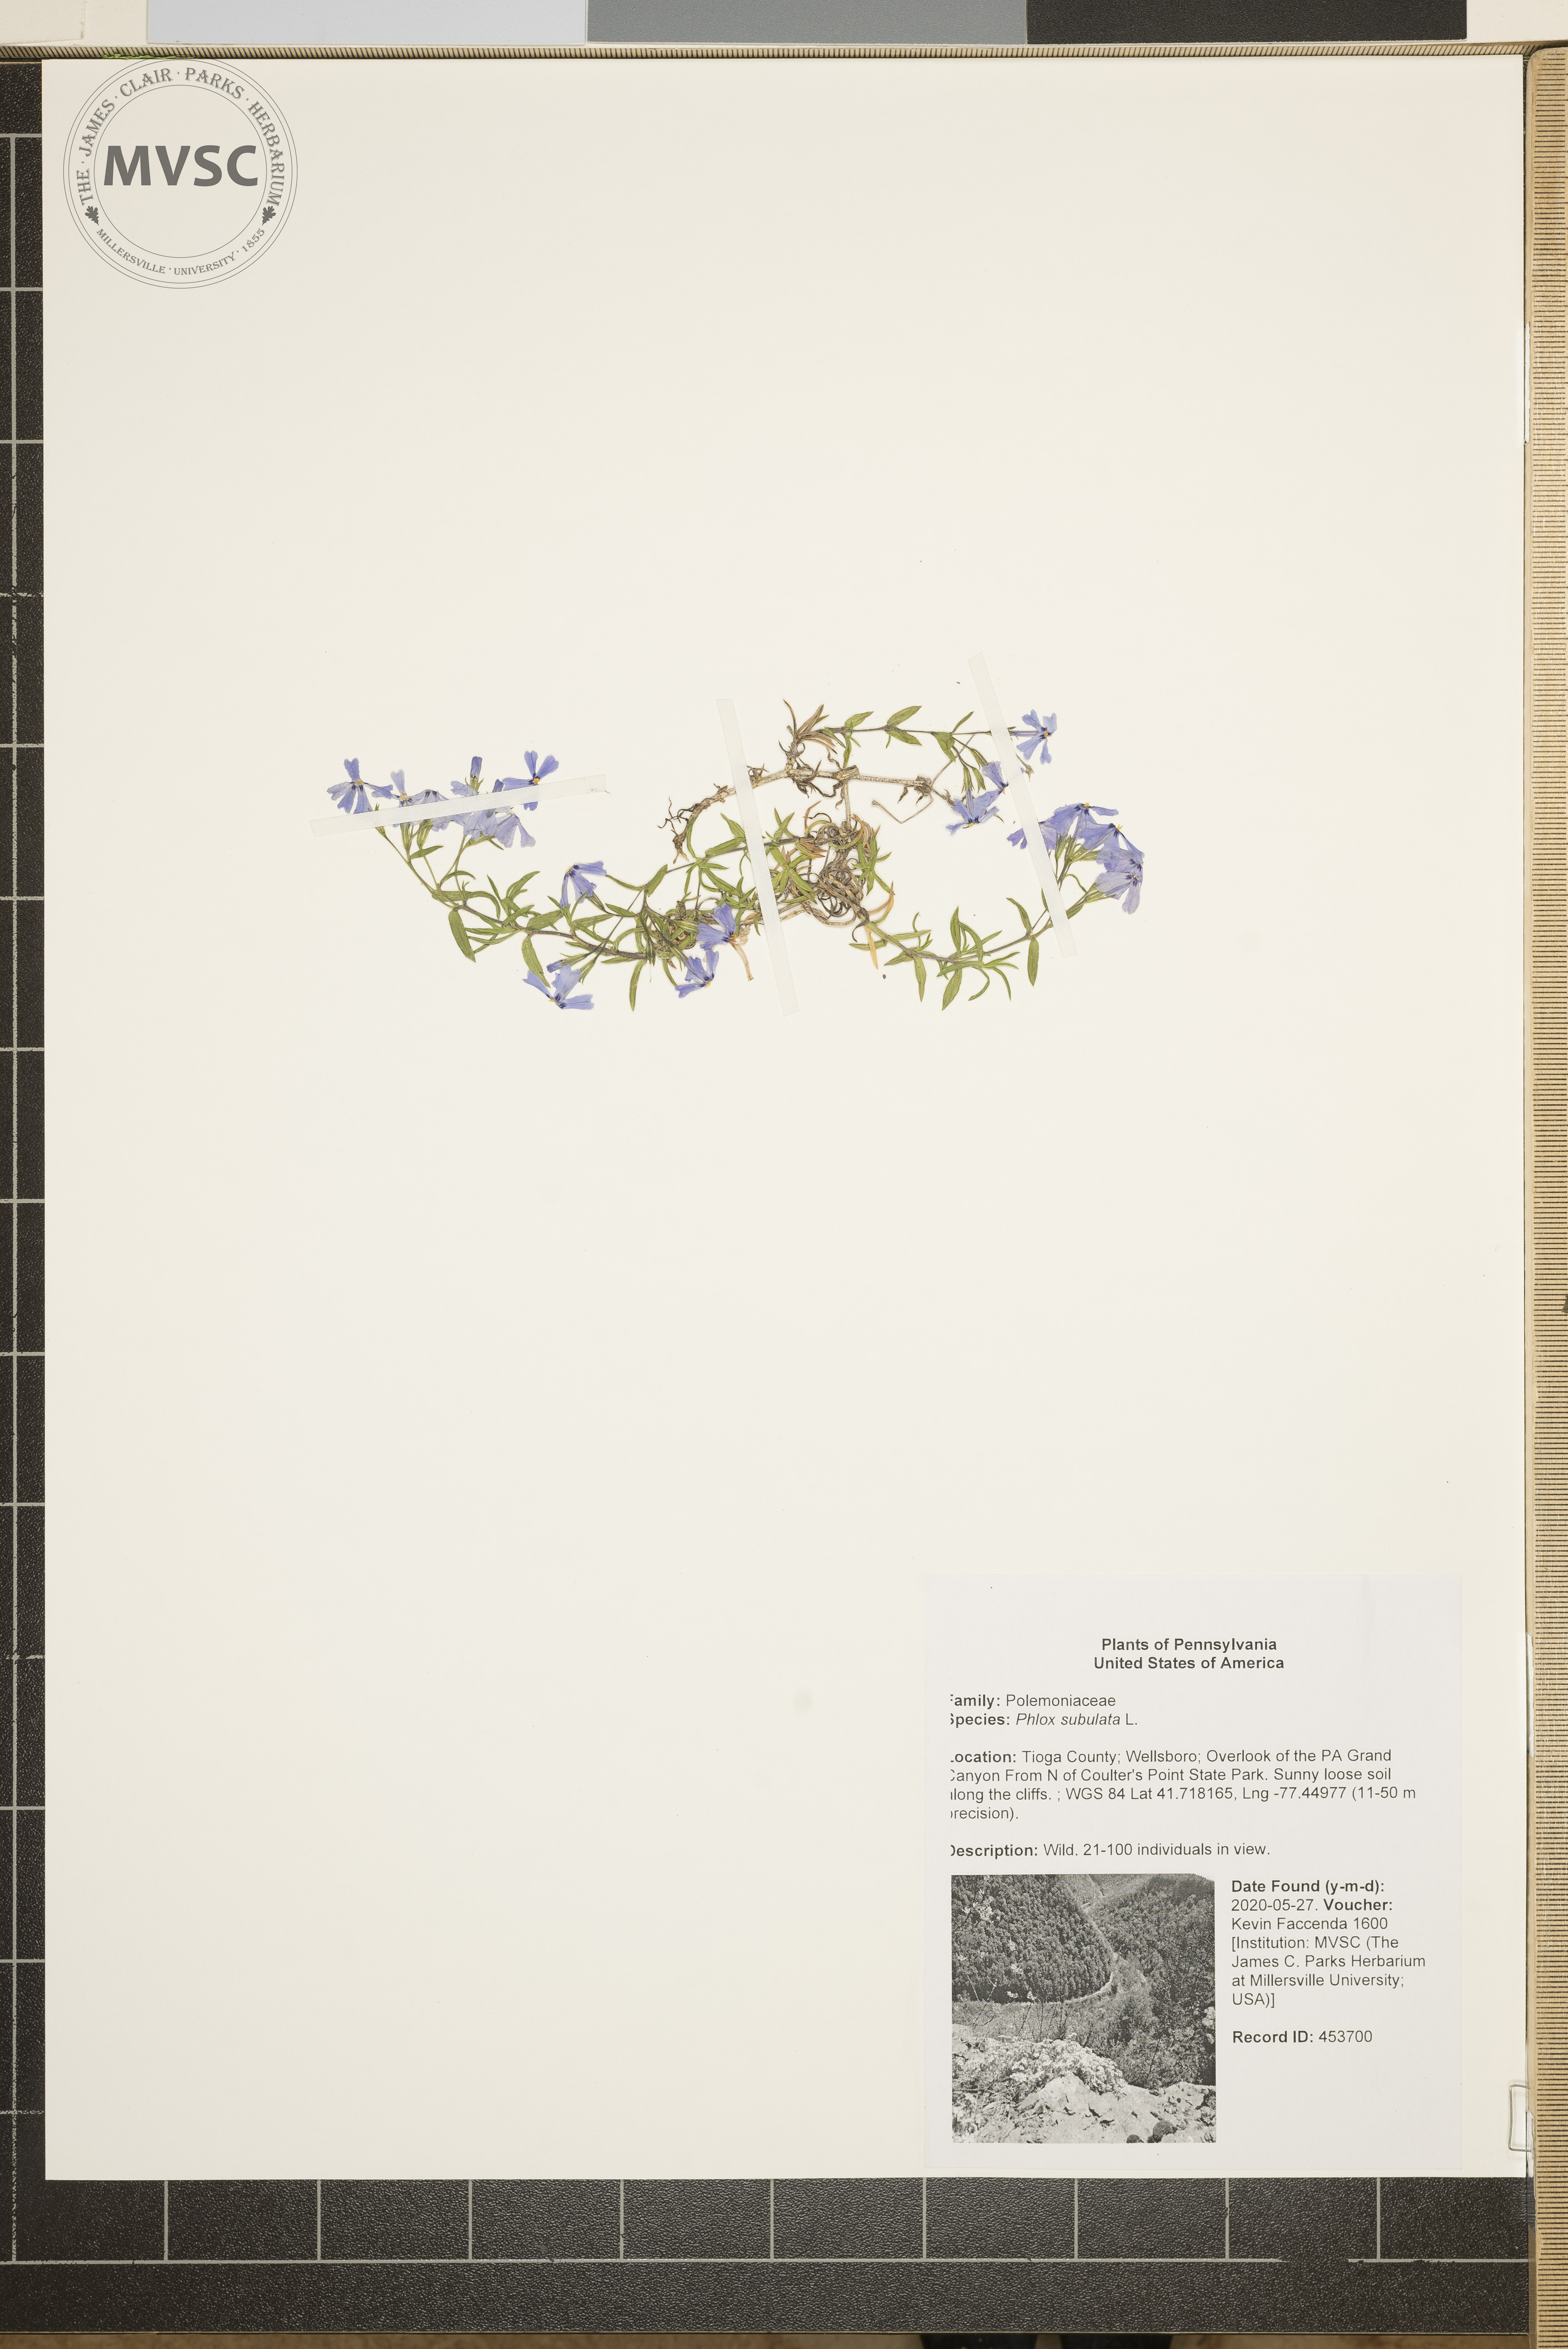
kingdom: Plantae
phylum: Tracheophyta
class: Magnoliopsida
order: Ericales
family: Polemoniaceae
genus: Phlox
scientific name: Phlox subulata
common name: Moss phlox
